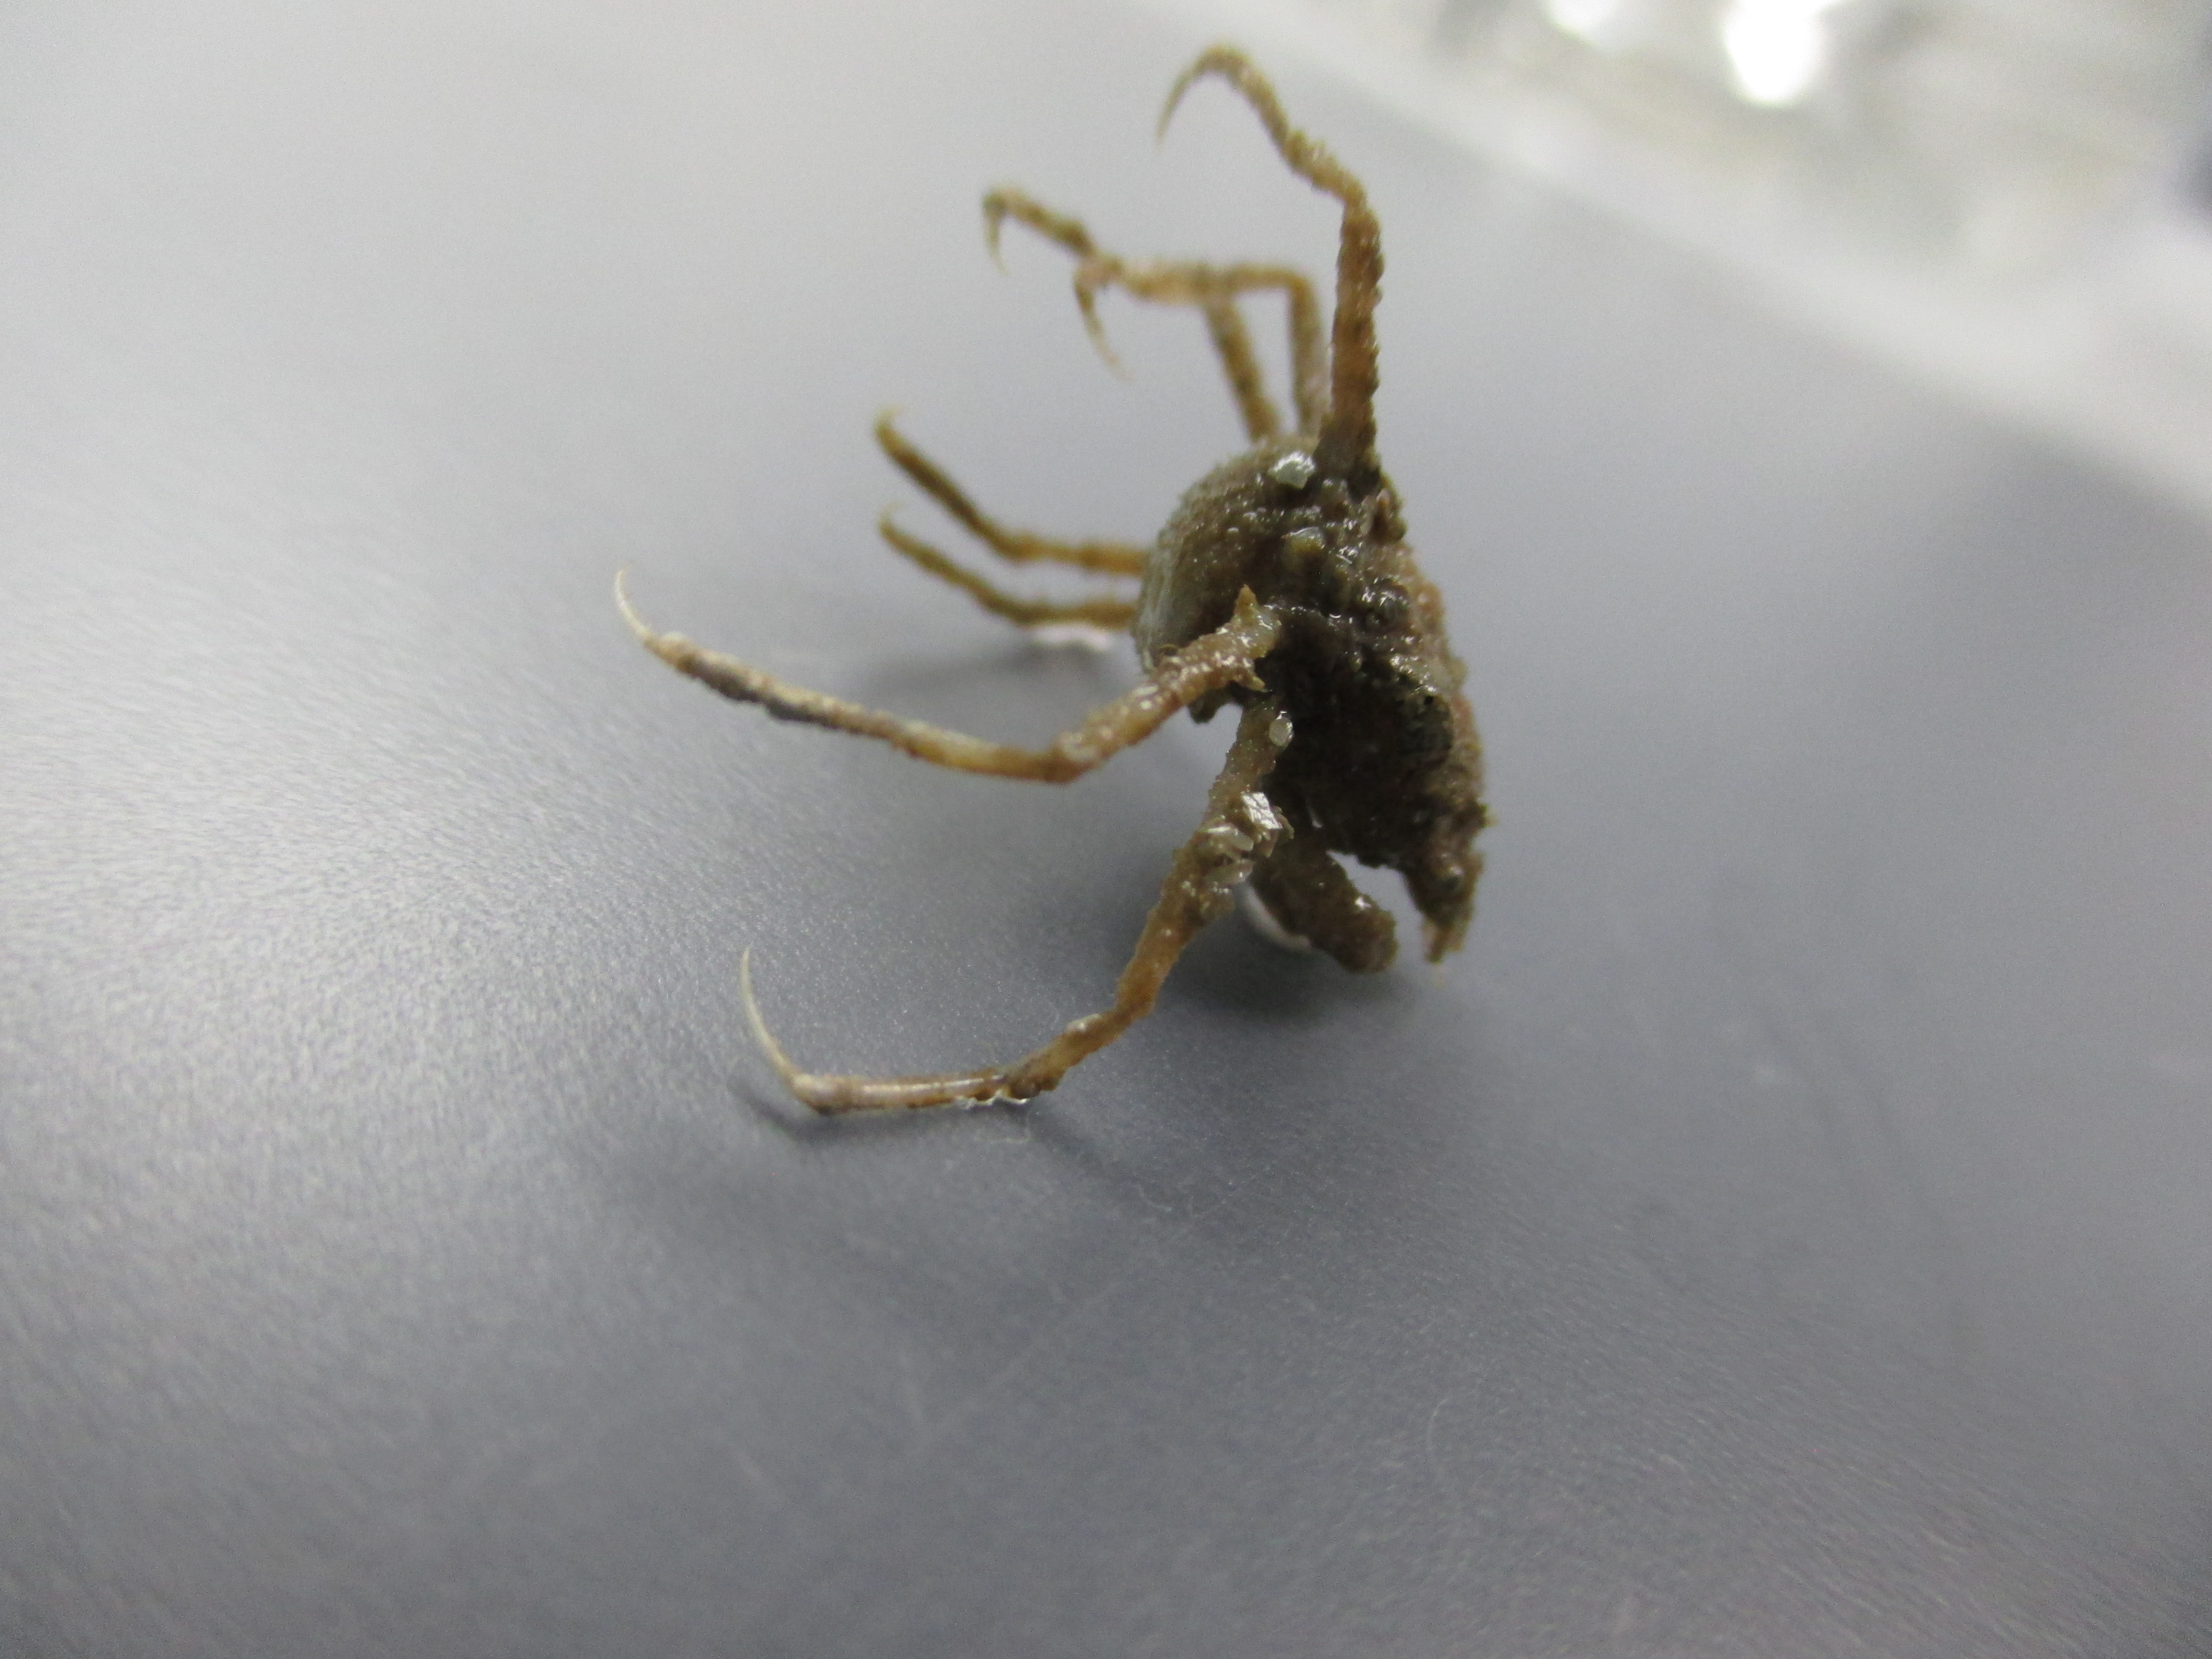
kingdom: Animalia
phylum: Arthropoda
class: Malacostraca
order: Decapoda
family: Inachidae
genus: Achaeopsis
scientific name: Achaeopsis spinulosa
